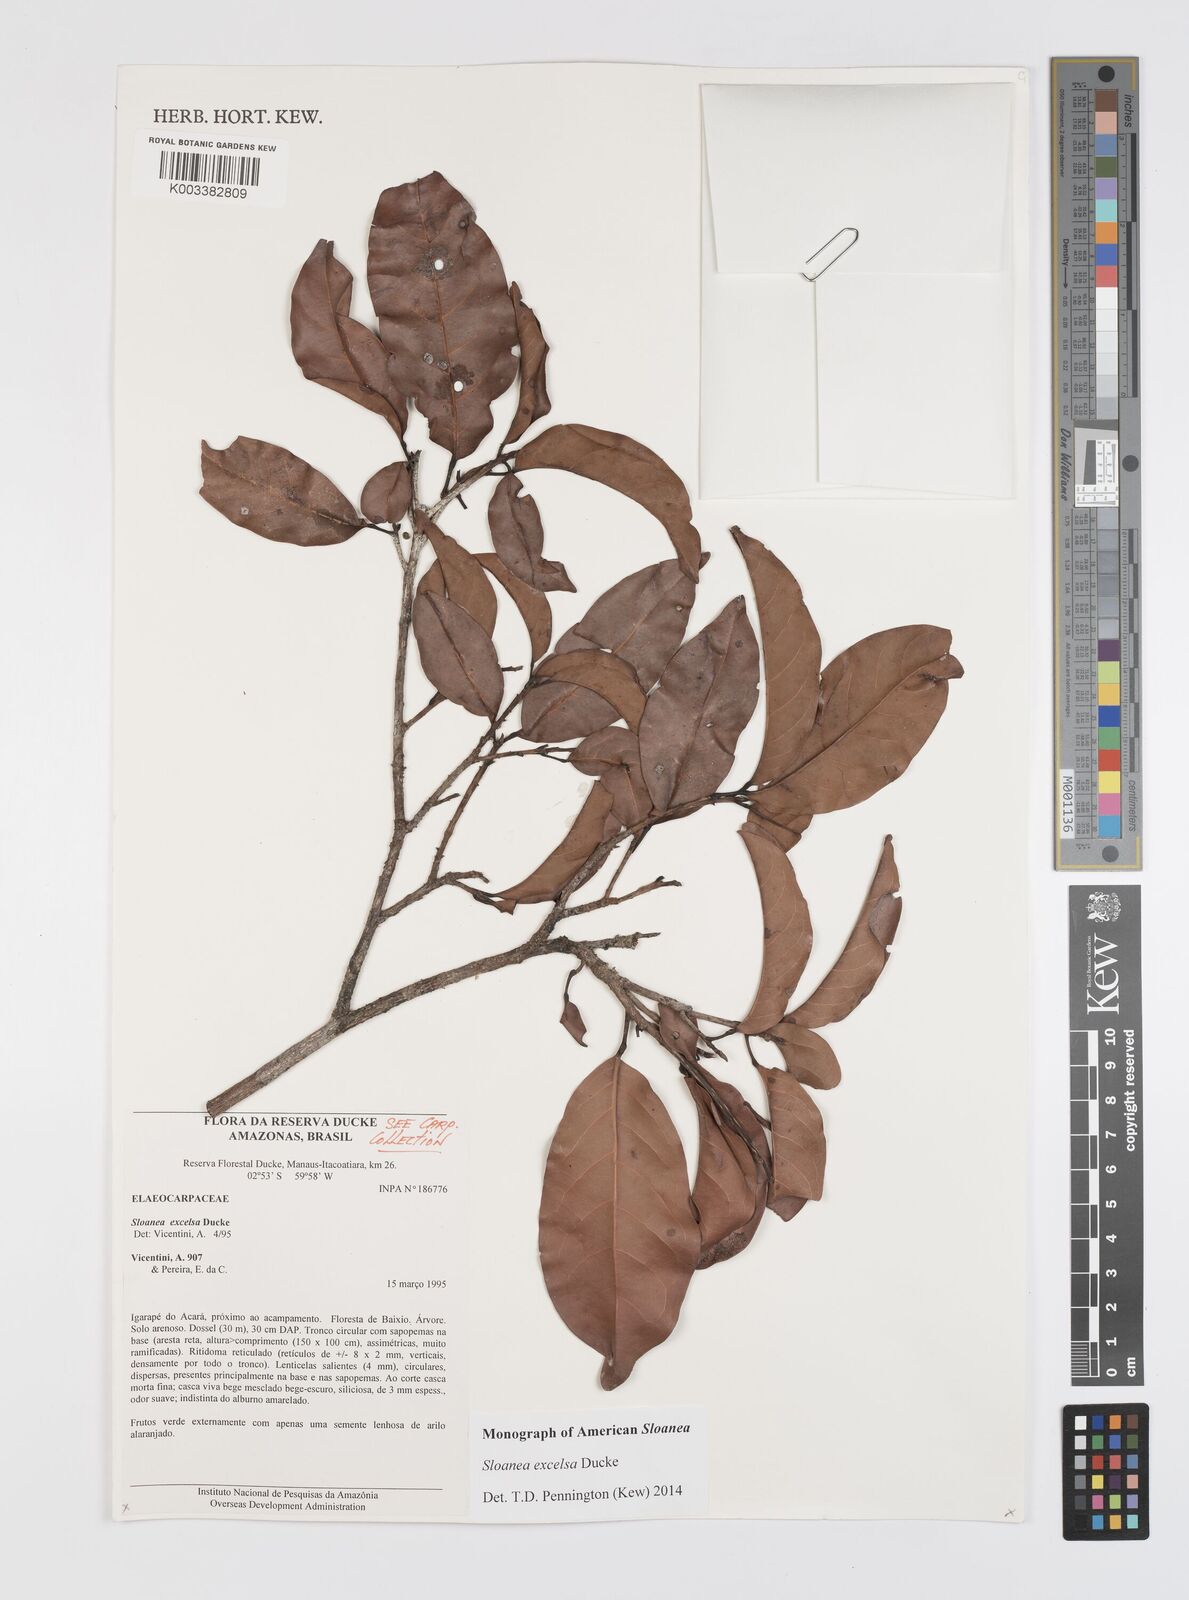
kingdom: Plantae
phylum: Tracheophyta
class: Magnoliopsida
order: Oxalidales
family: Elaeocarpaceae
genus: Sloanea
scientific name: Sloanea laurifolia
